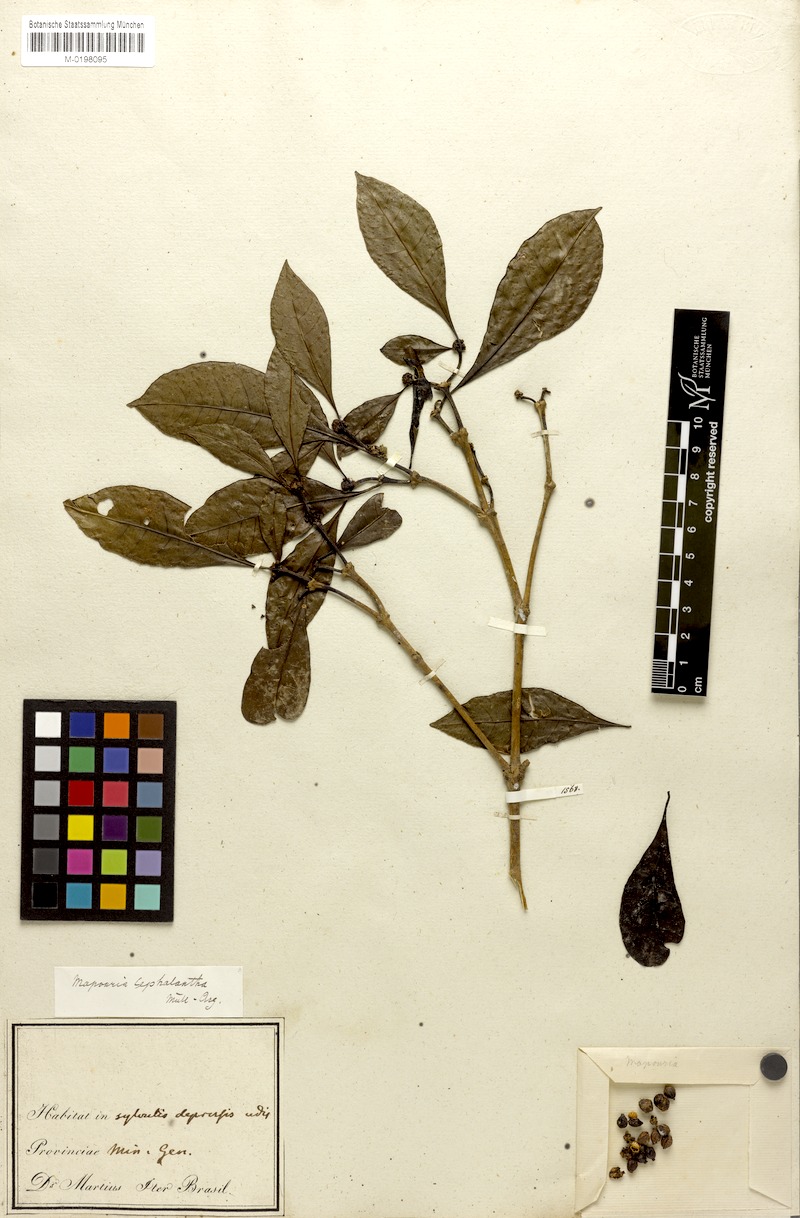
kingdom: Plantae
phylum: Tracheophyta
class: Magnoliopsida
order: Gentianales
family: Rubiaceae
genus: Eumachia
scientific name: Eumachia cephalantha
